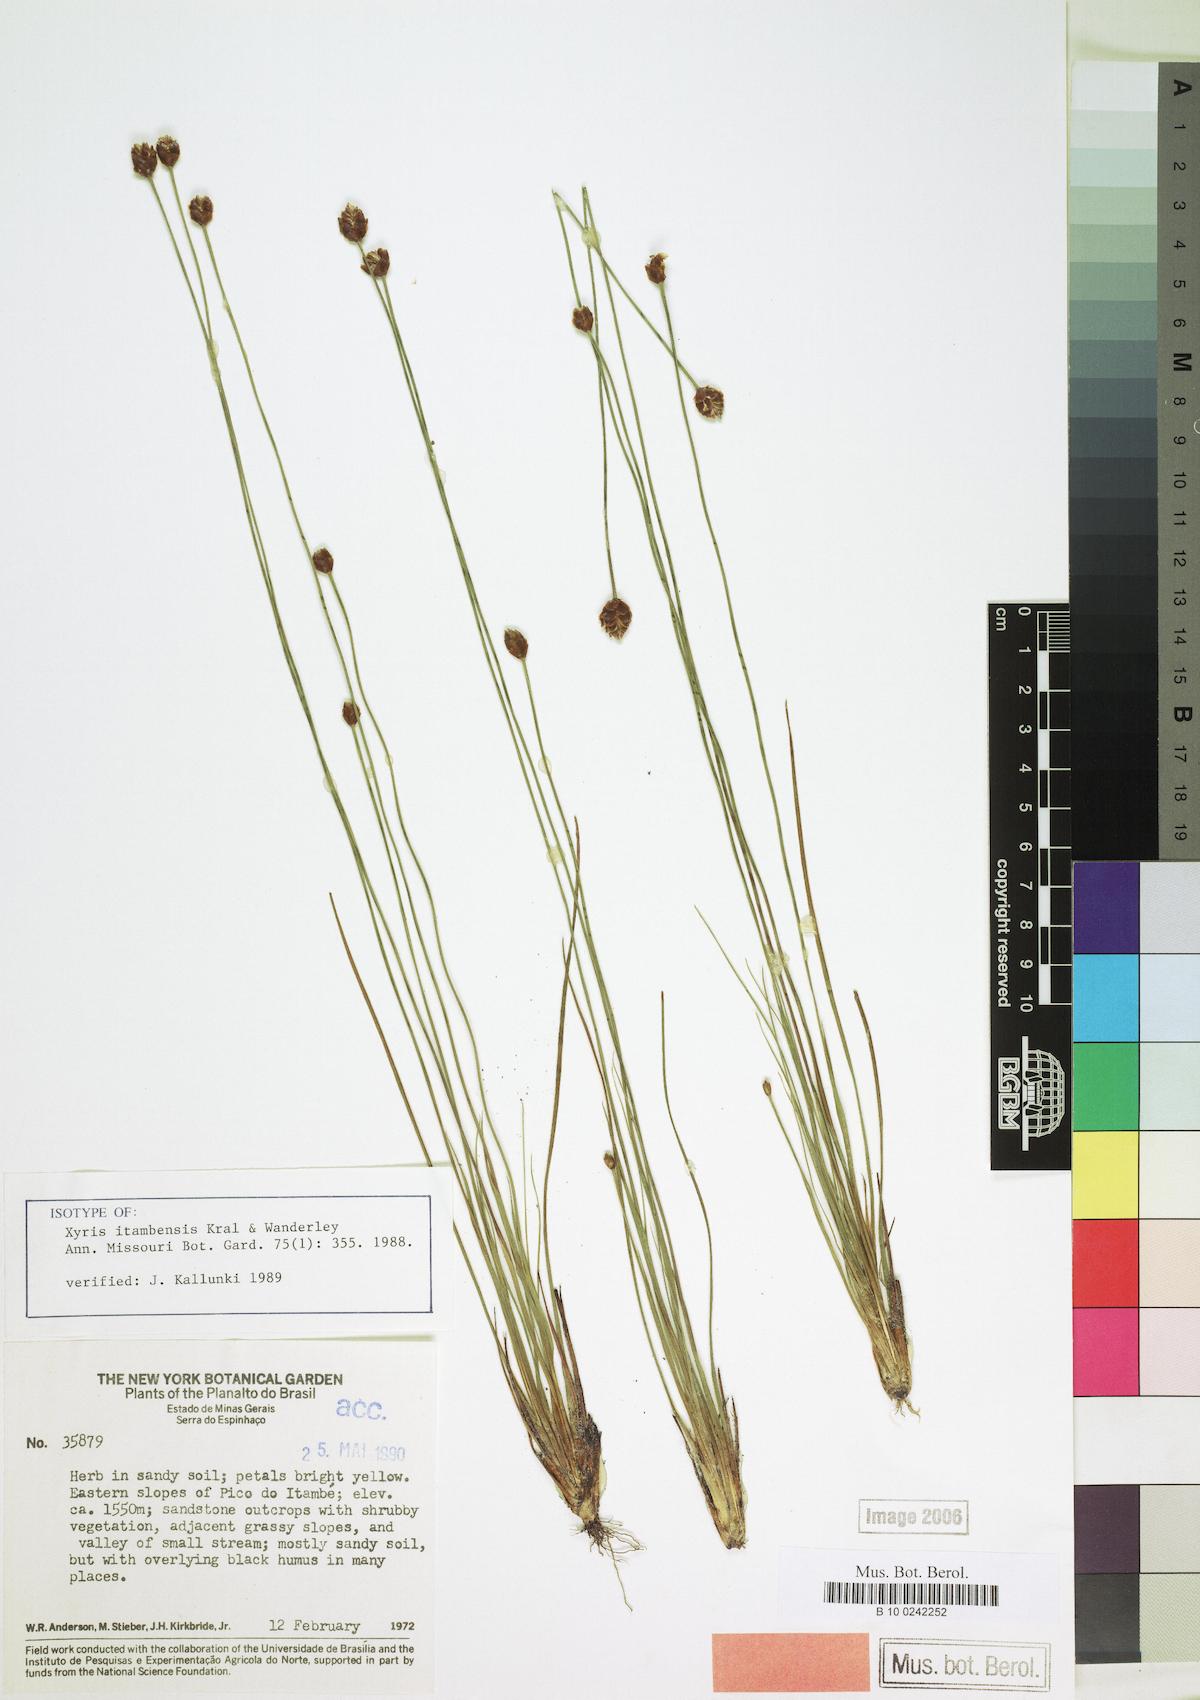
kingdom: Plantae
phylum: Tracheophyta
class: Liliopsida
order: Poales
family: Xyridaceae
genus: Xyris
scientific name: Xyris itambensis
